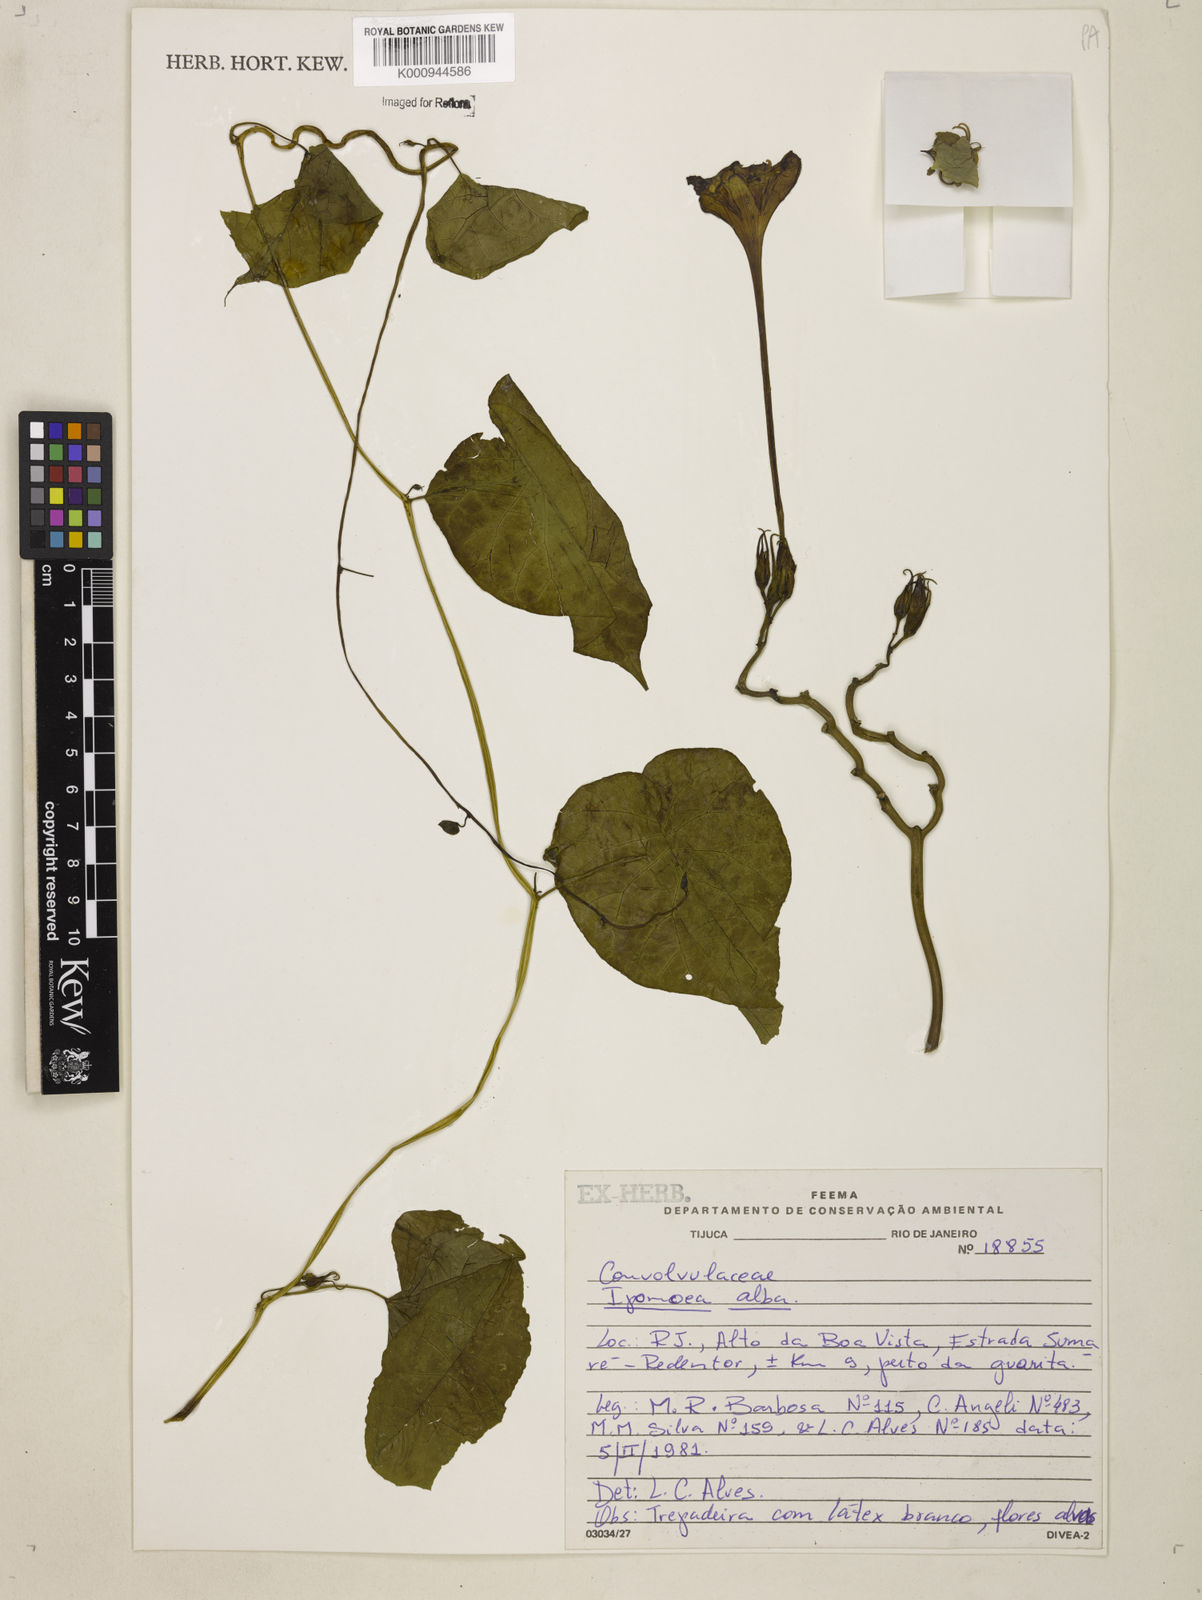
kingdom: Plantae
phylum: Tracheophyta
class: Magnoliopsida
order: Solanales
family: Convolvulaceae
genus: Ipomoea
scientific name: Ipomoea alba
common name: Moonflower
